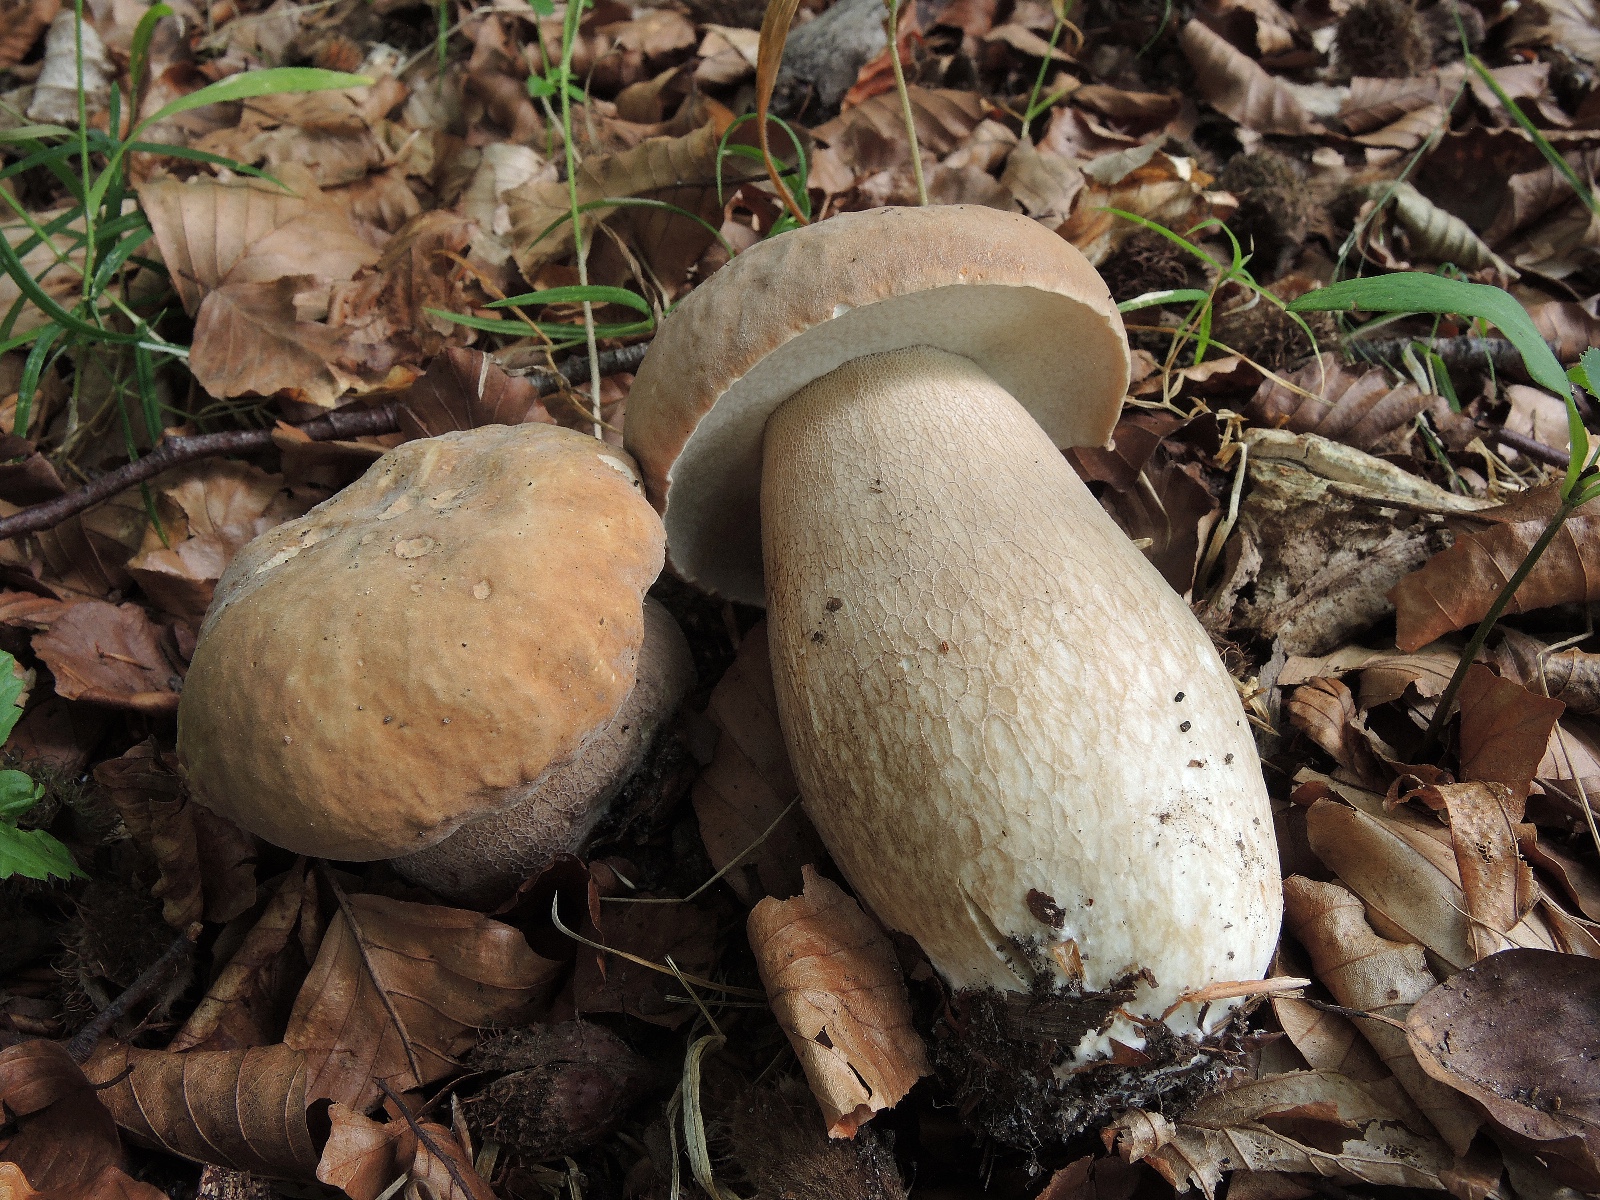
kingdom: Fungi
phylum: Basidiomycota
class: Agaricomycetes
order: Boletales
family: Boletaceae
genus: Boletus
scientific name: Boletus reticulatus
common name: sommer-rørhat
